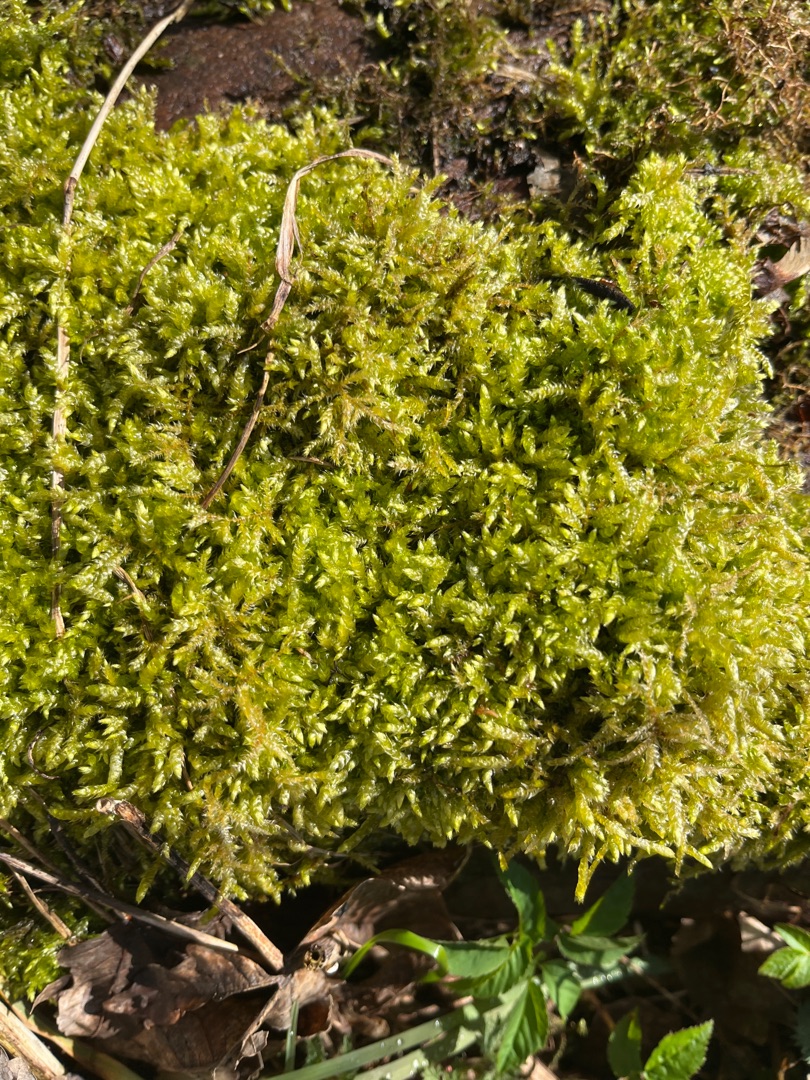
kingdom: Plantae
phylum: Bryophyta
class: Bryopsida
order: Hypnales
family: Brachytheciaceae
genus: Brachythecium
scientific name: Brachythecium rutabulum
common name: Almindelig kortkapsel
